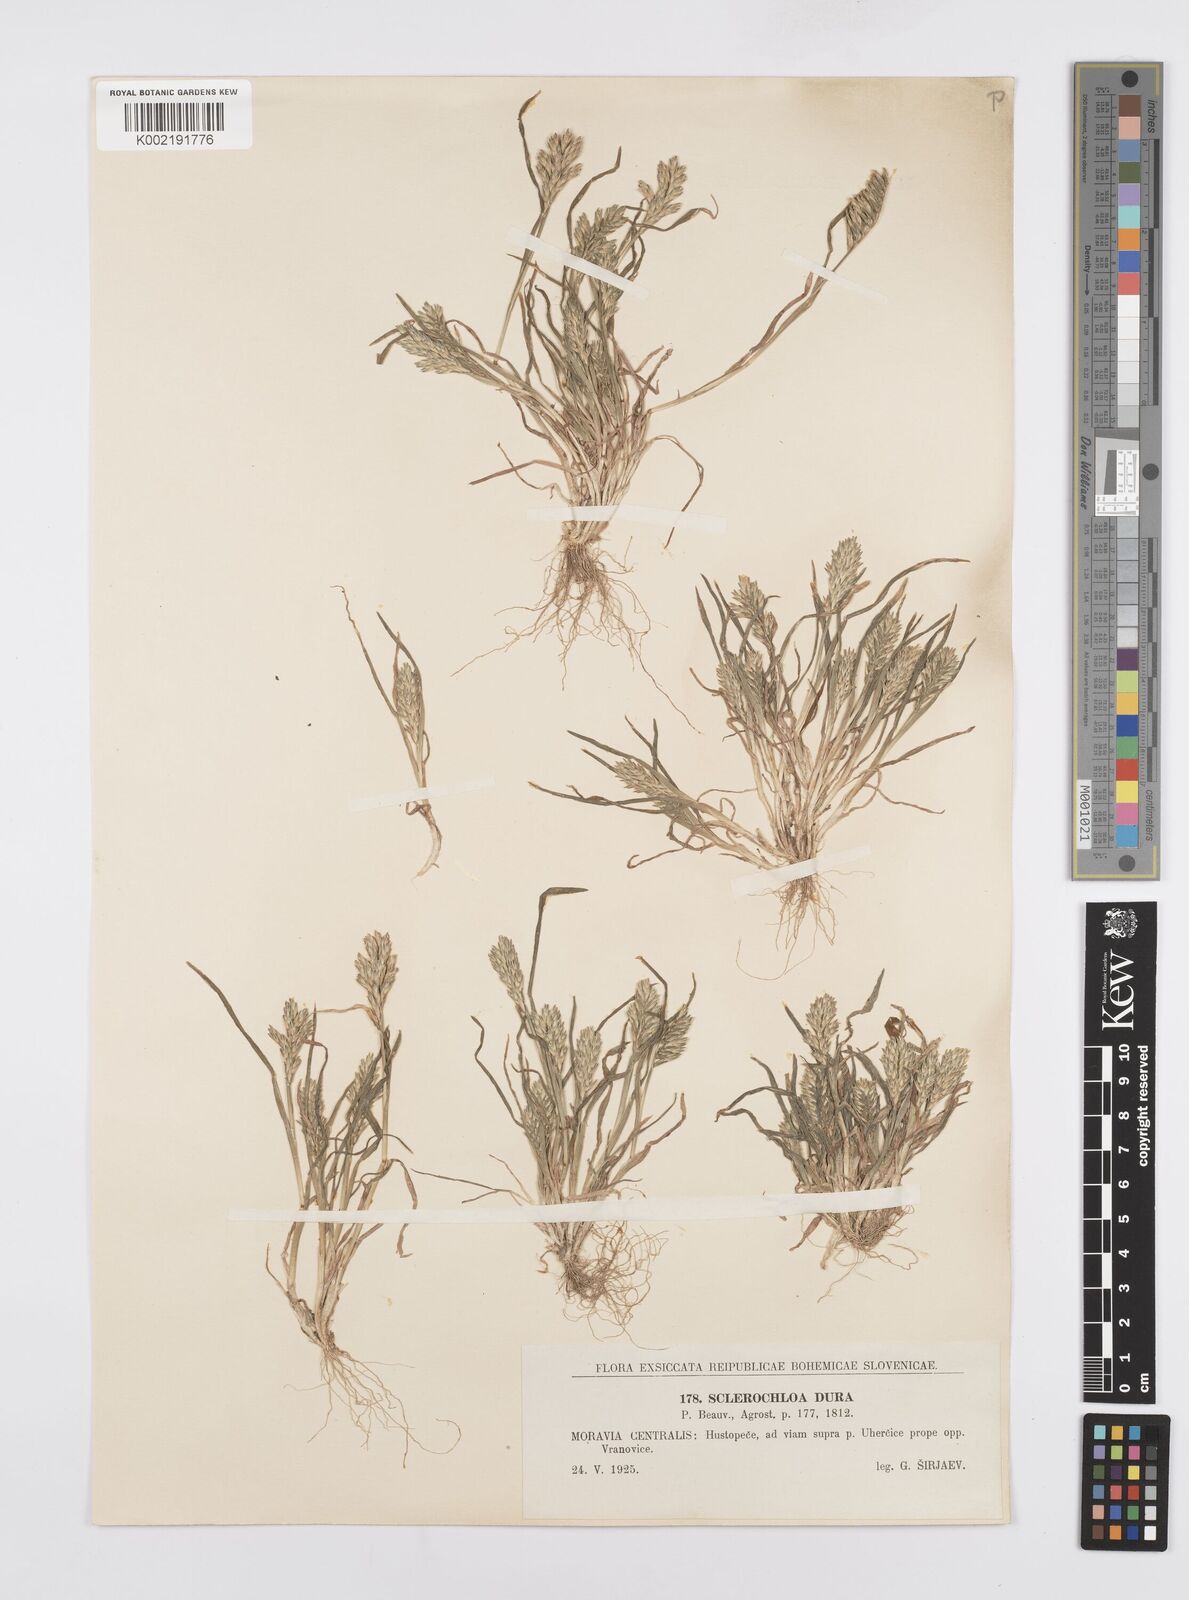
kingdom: Plantae
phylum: Tracheophyta
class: Liliopsida
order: Poales
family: Poaceae
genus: Sclerochloa
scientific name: Sclerochloa dura
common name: Common hardgrass
